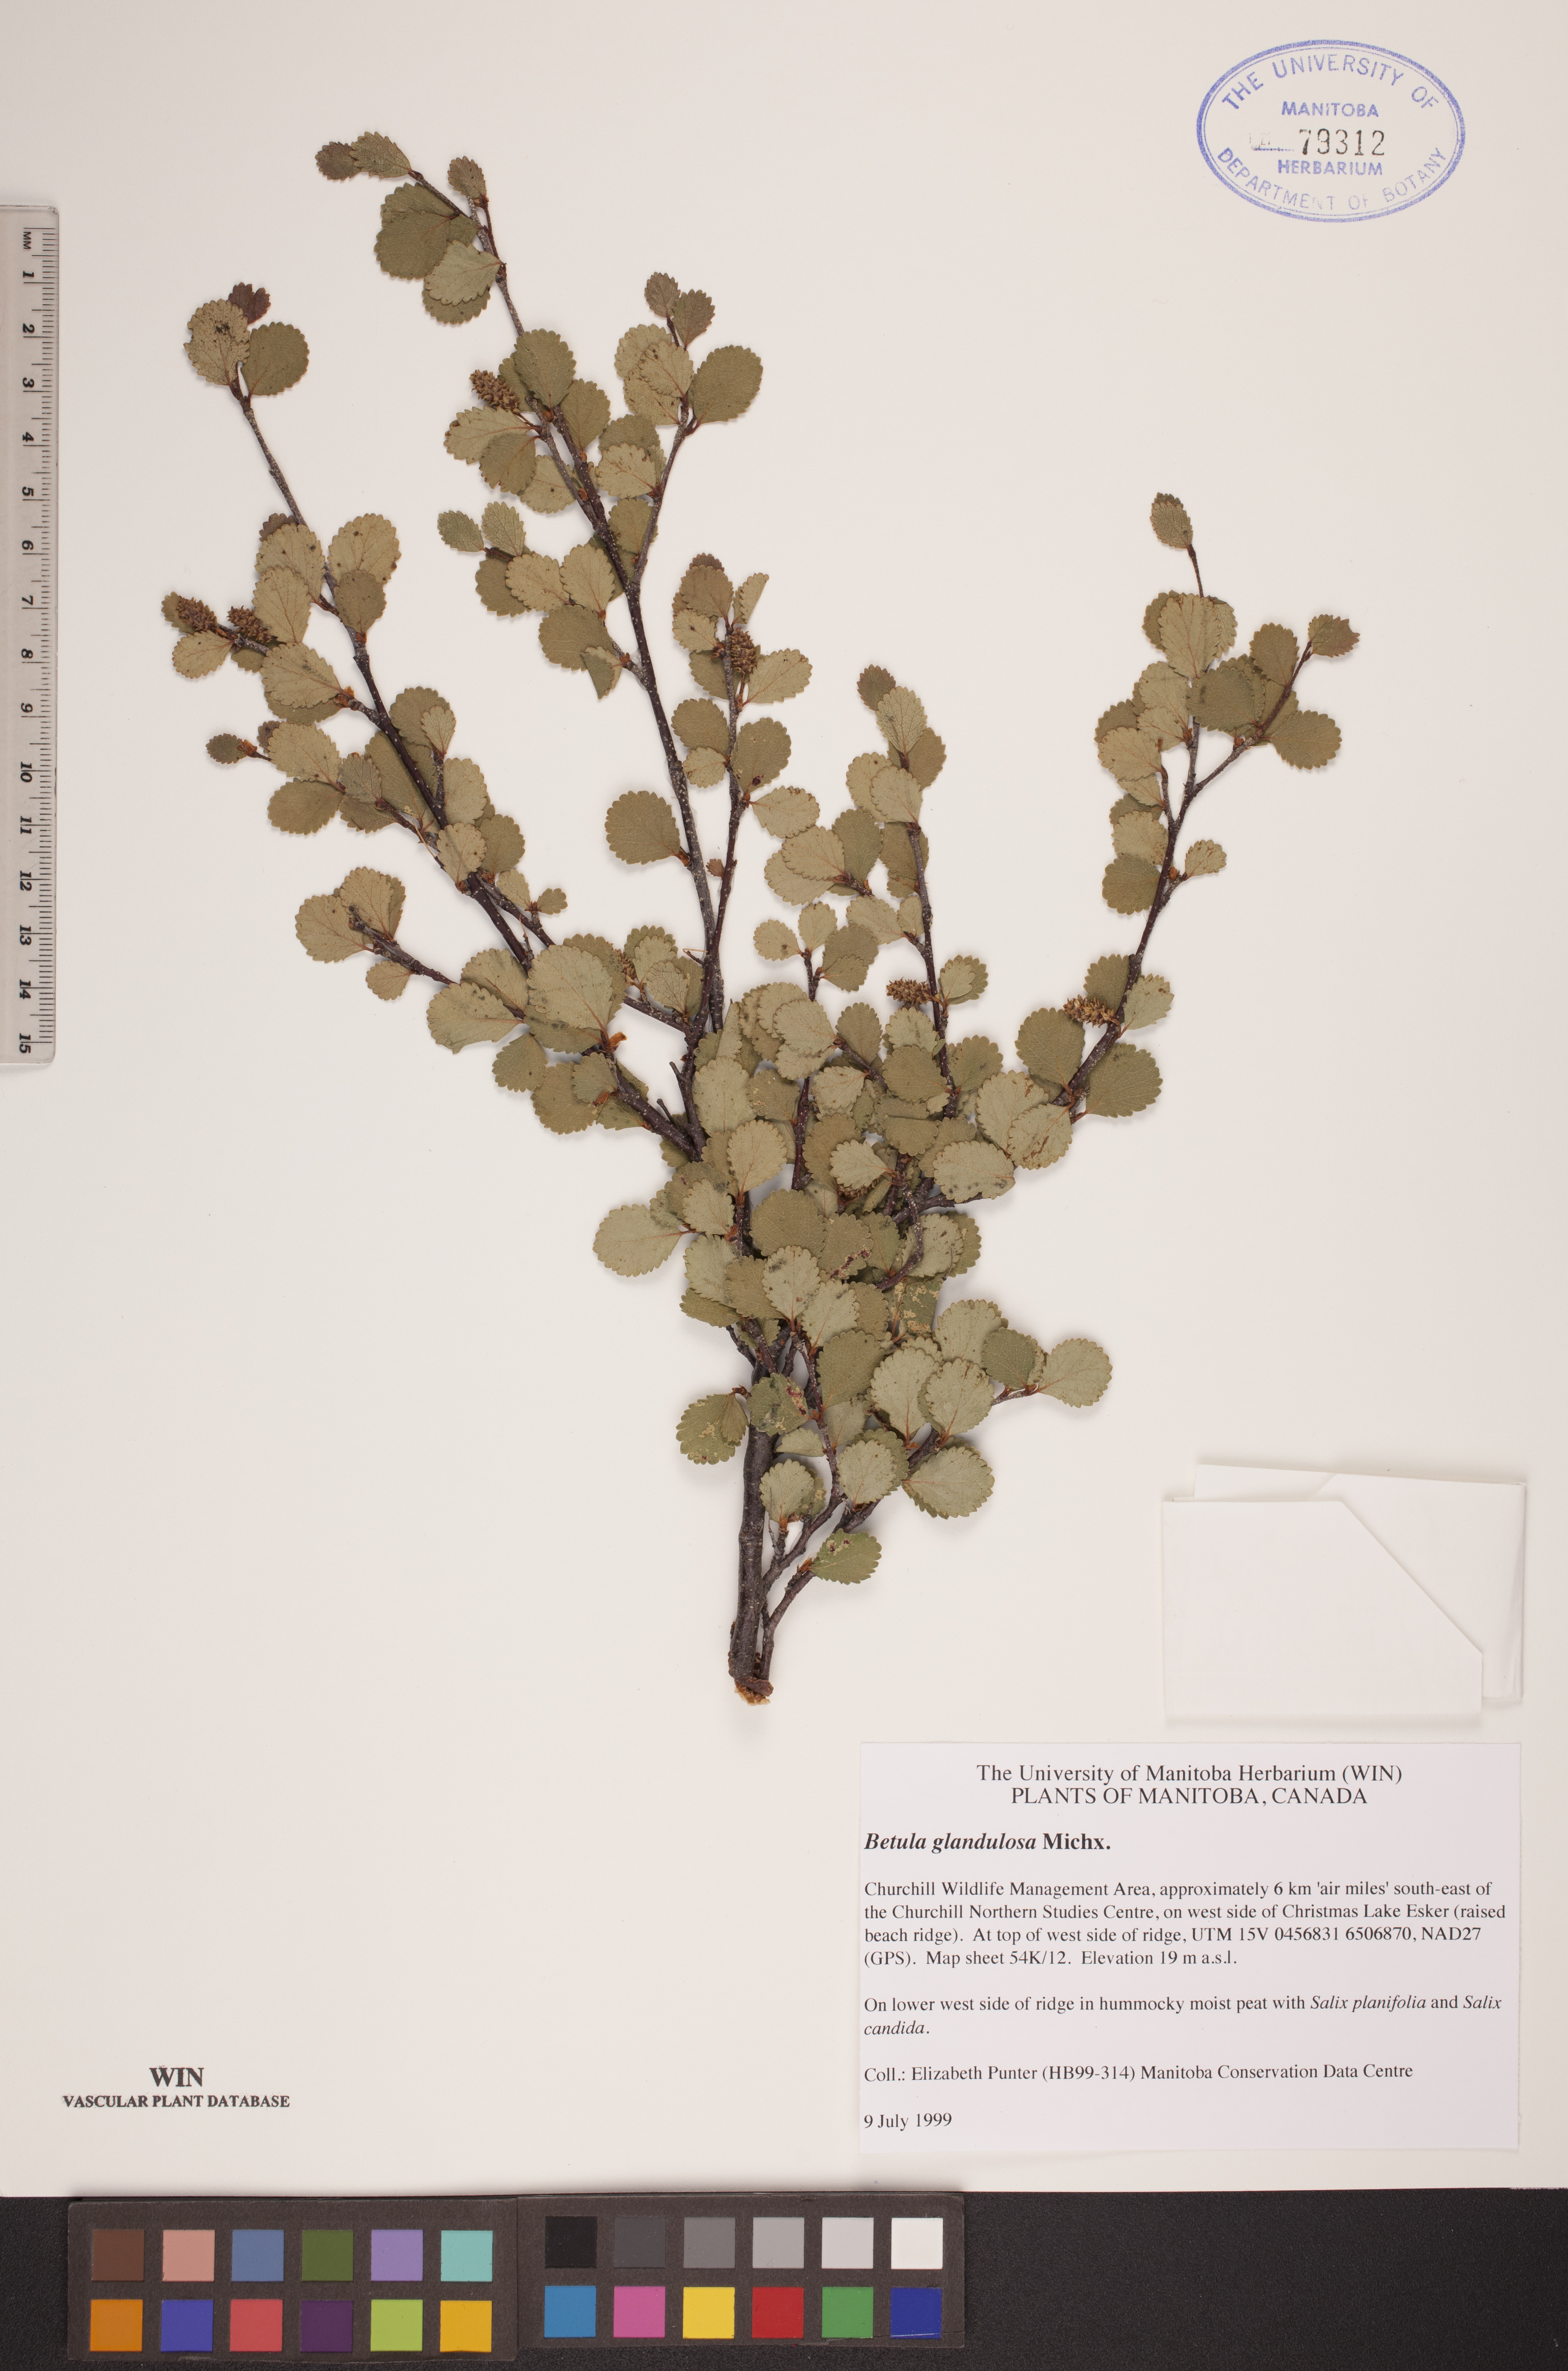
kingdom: Plantae
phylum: Tracheophyta
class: Magnoliopsida
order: Fagales
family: Betulaceae
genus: Betula
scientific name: Betula glandulosa
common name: Dwarf birch
